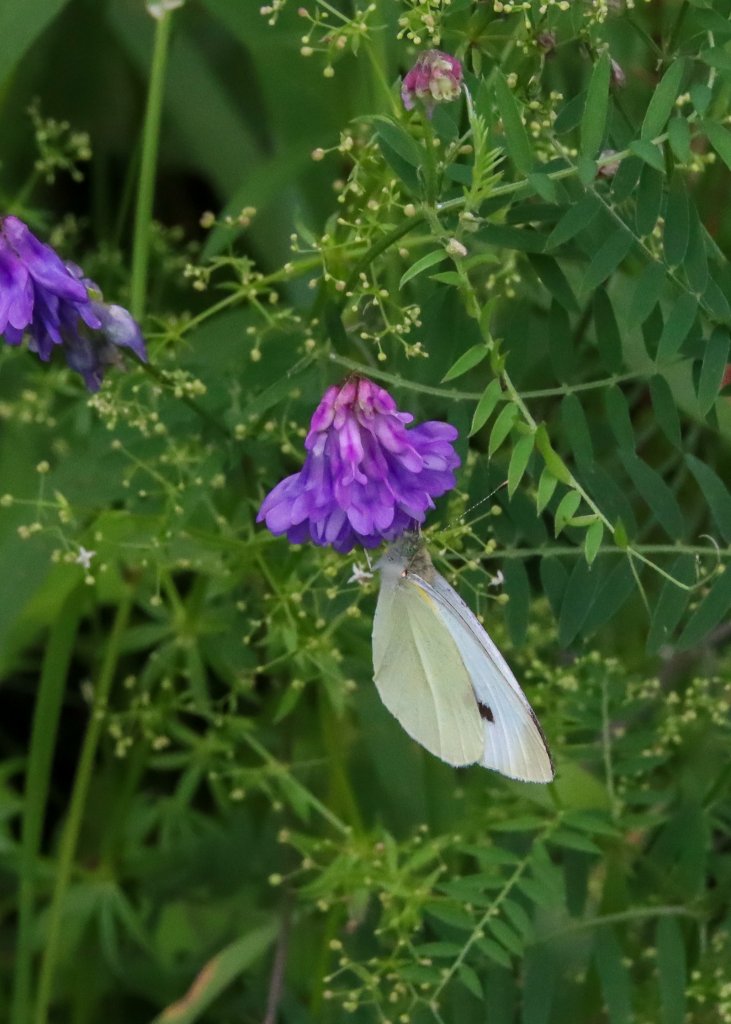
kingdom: Animalia
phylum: Arthropoda
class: Insecta
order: Lepidoptera
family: Pieridae
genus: Pieris
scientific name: Pieris rapae
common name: Cabbage White
